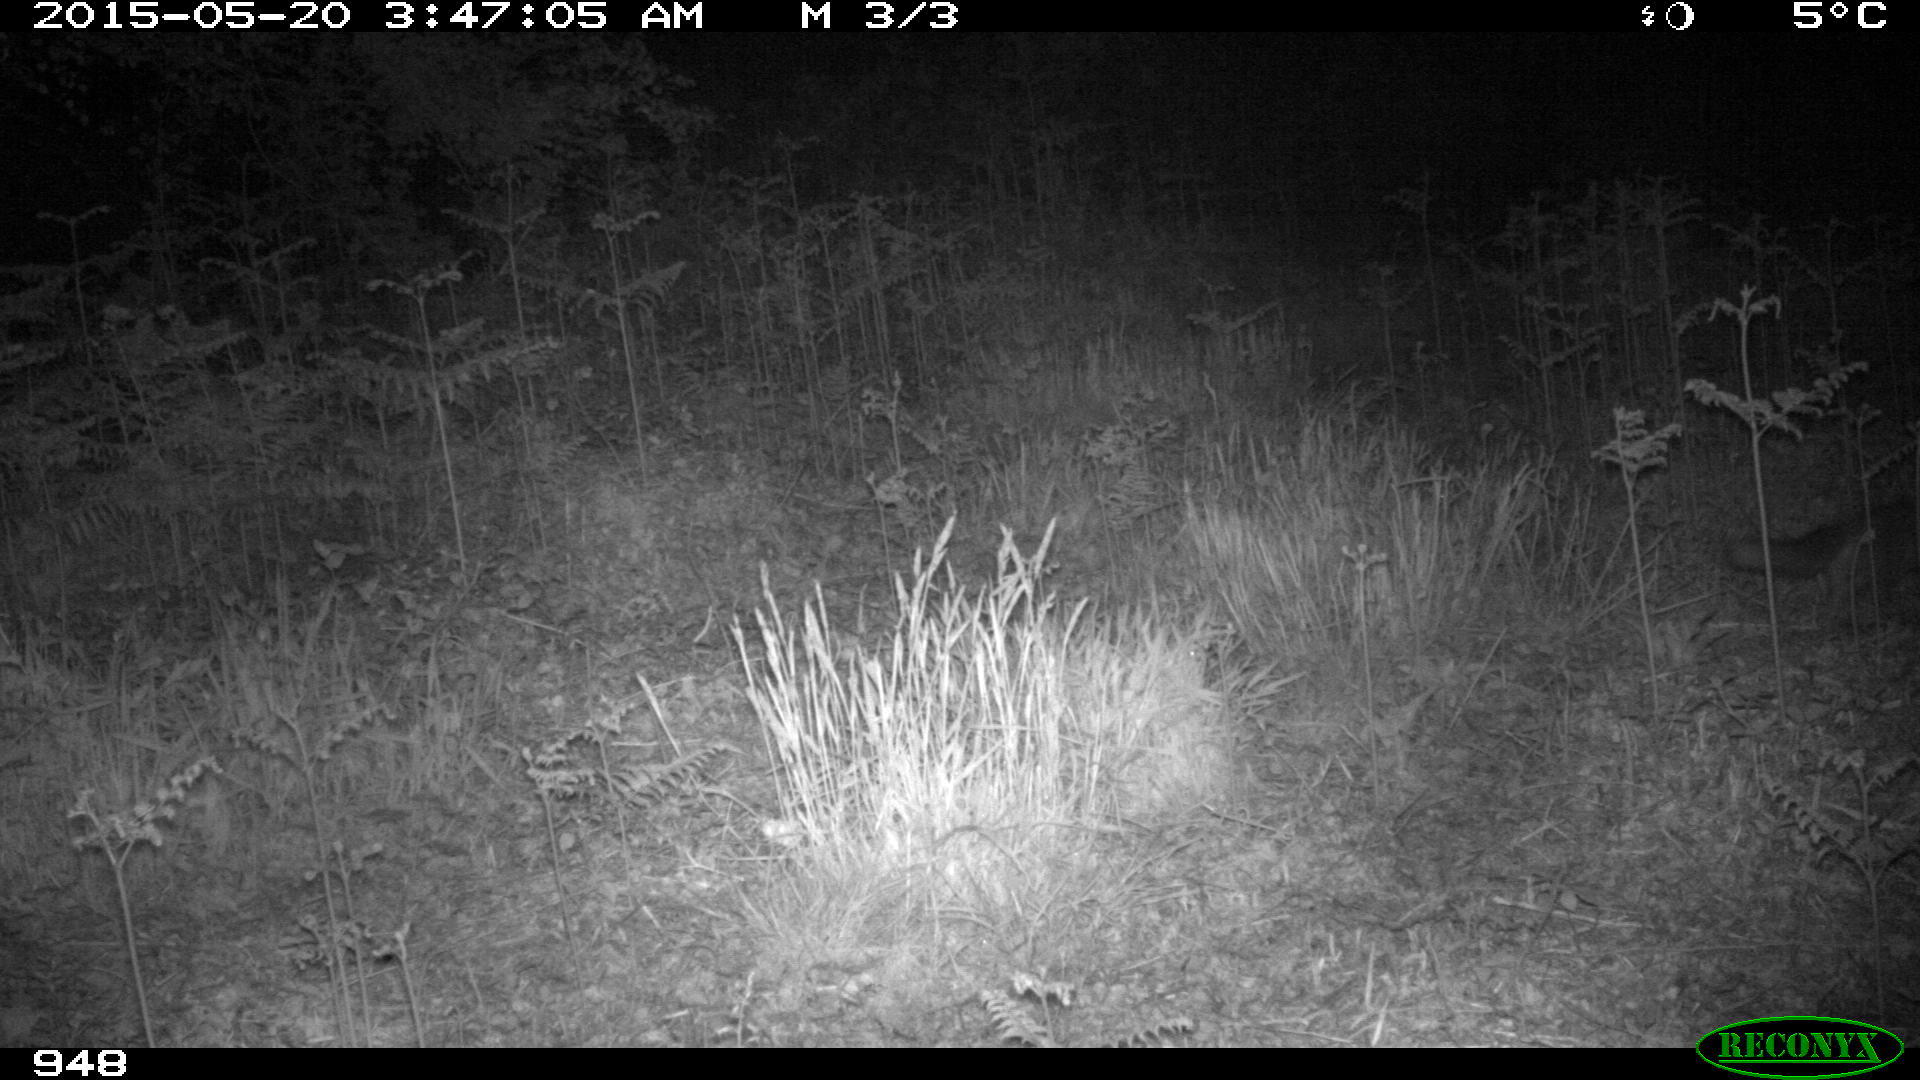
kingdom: Animalia
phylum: Chordata
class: Mammalia
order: Carnivora
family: Canidae
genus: Vulpes
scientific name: Vulpes vulpes
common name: Red fox
